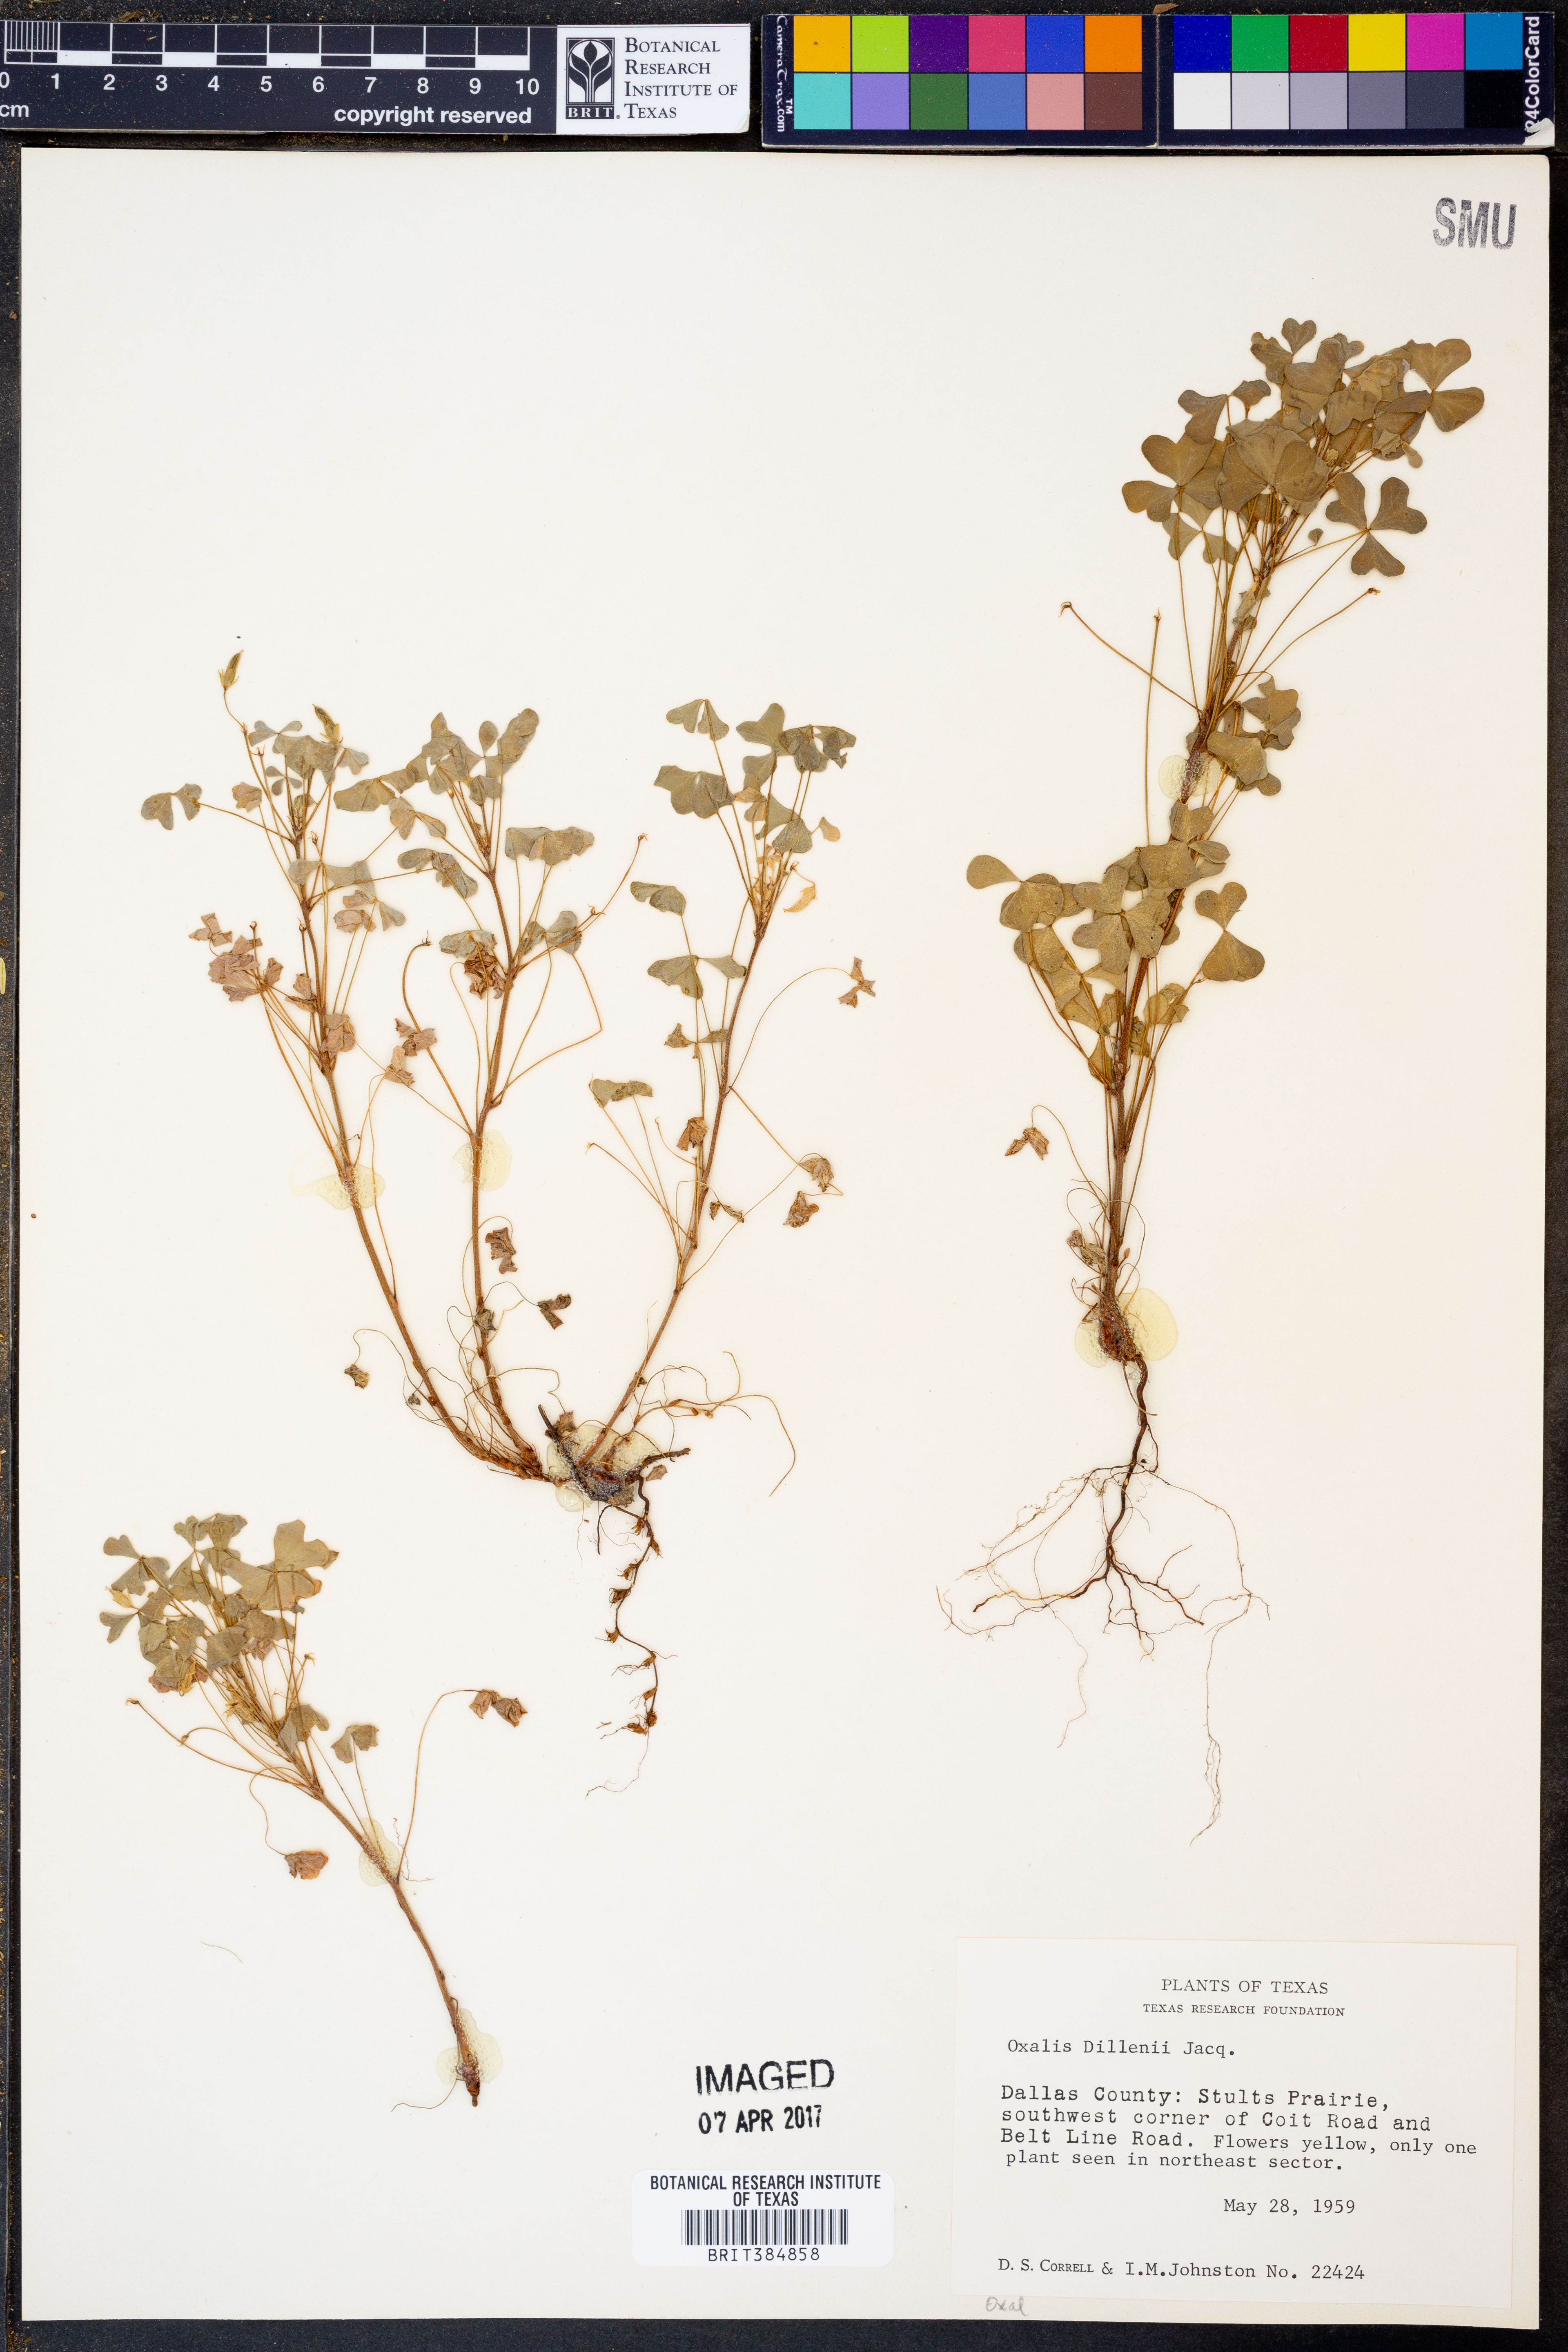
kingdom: Plantae
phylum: Tracheophyta
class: Magnoliopsida
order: Oxalidales
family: Oxalidaceae
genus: Oxalis
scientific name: Oxalis dillenii
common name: Sussex yellow-sorrel
